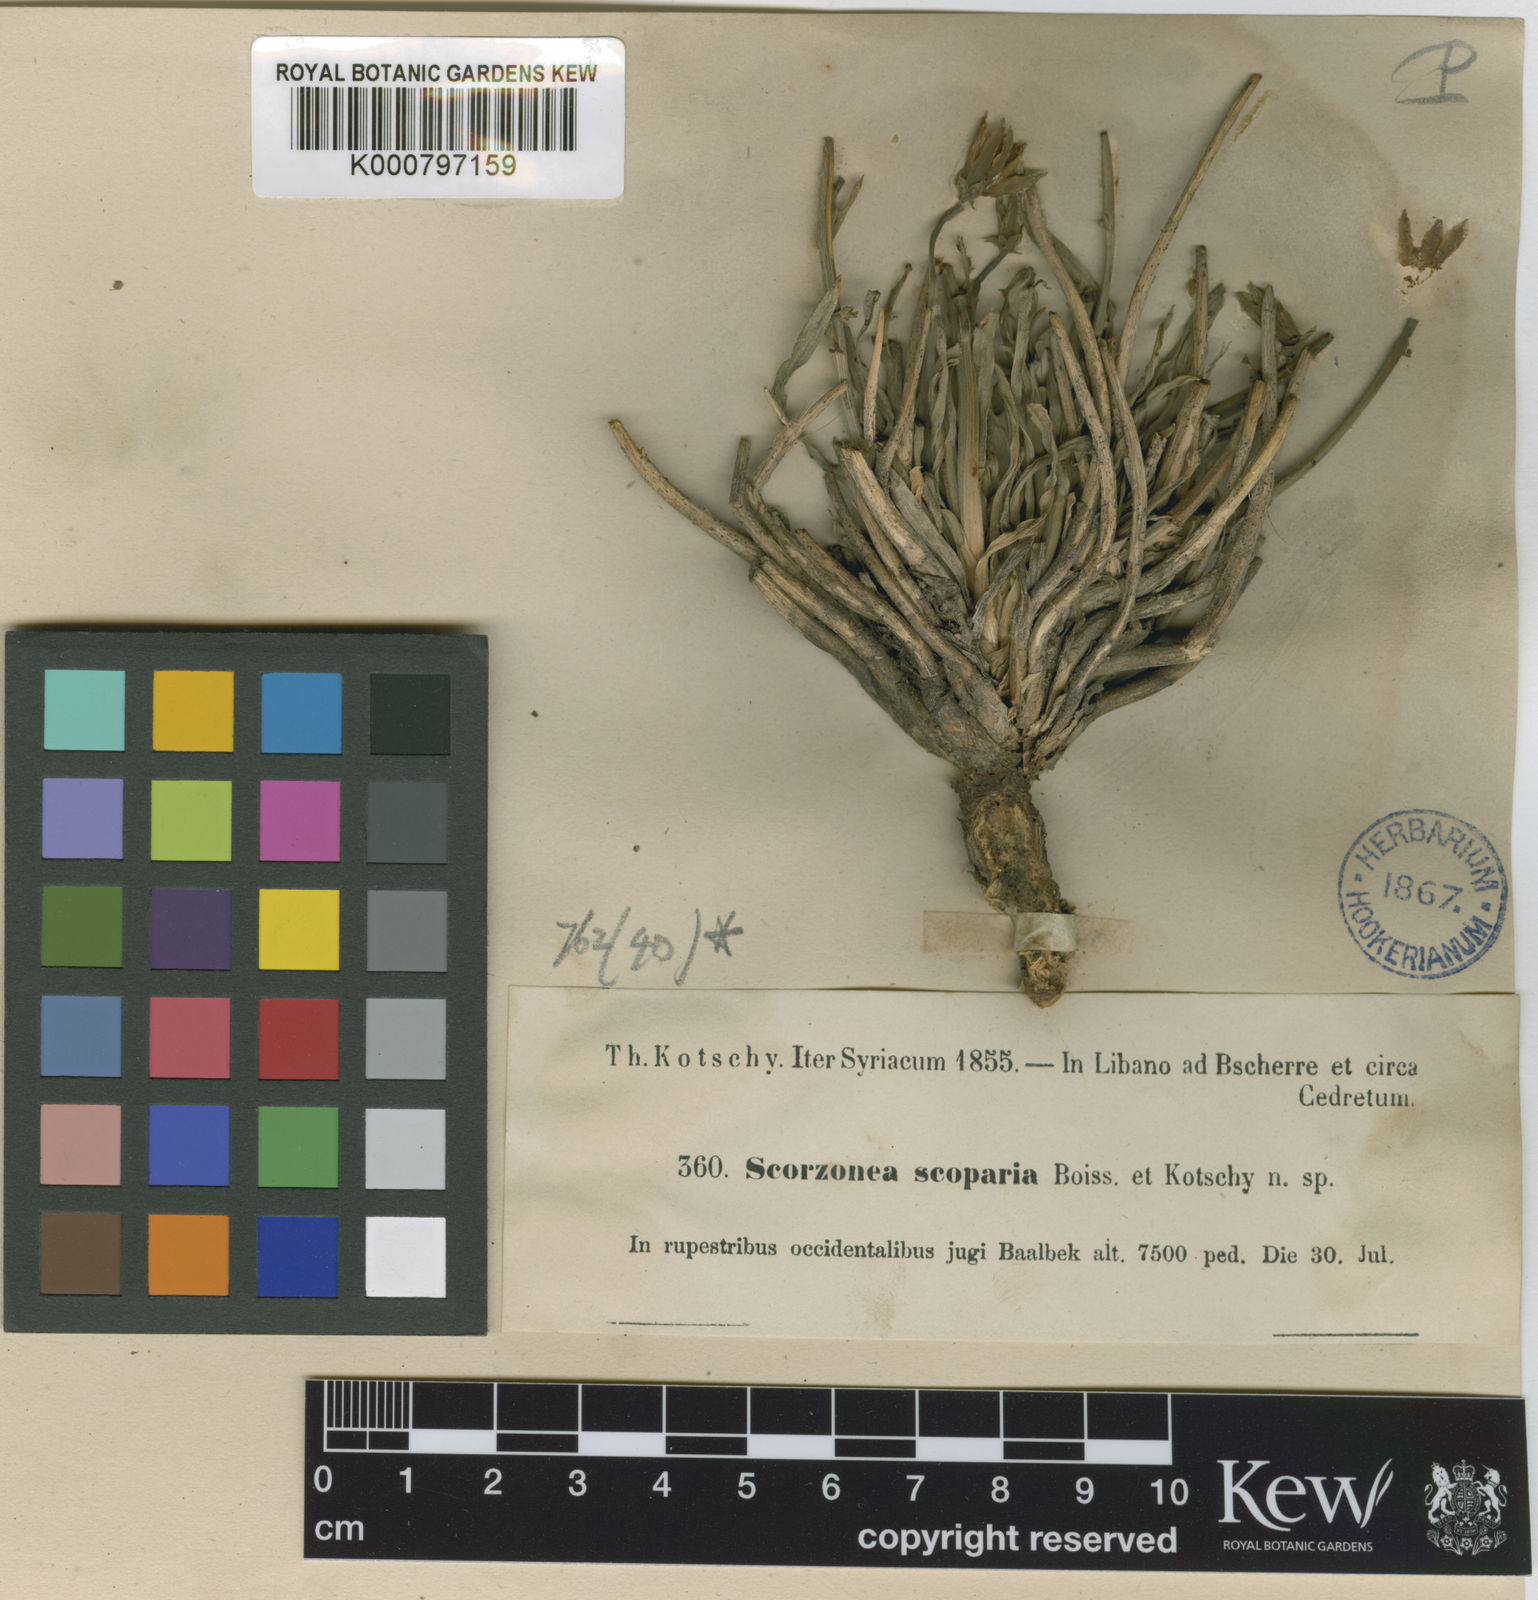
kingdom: Plantae
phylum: Tracheophyta
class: Magnoliopsida
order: Asterales
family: Asteraceae
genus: Gelasia
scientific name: Gelasia mackmeliana
